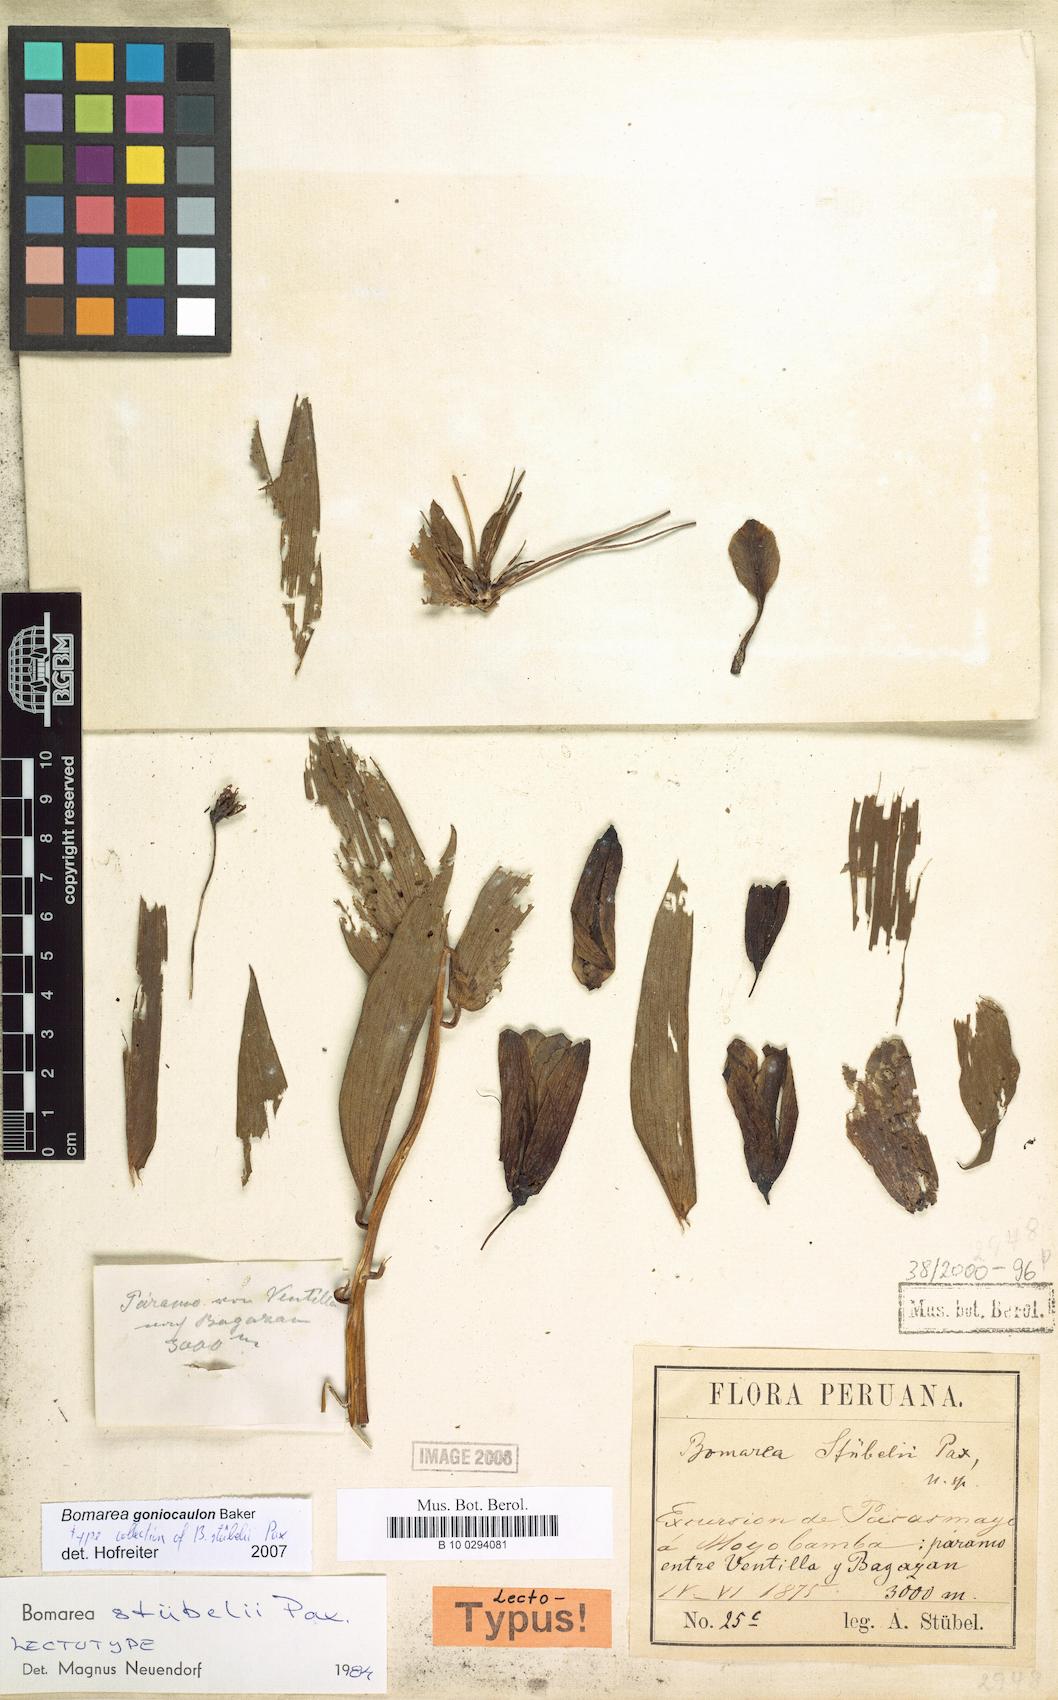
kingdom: Plantae
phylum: Tracheophyta
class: Liliopsida
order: Liliales
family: Alstroemeriaceae
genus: Bomarea
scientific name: Bomarea goniocaulon
